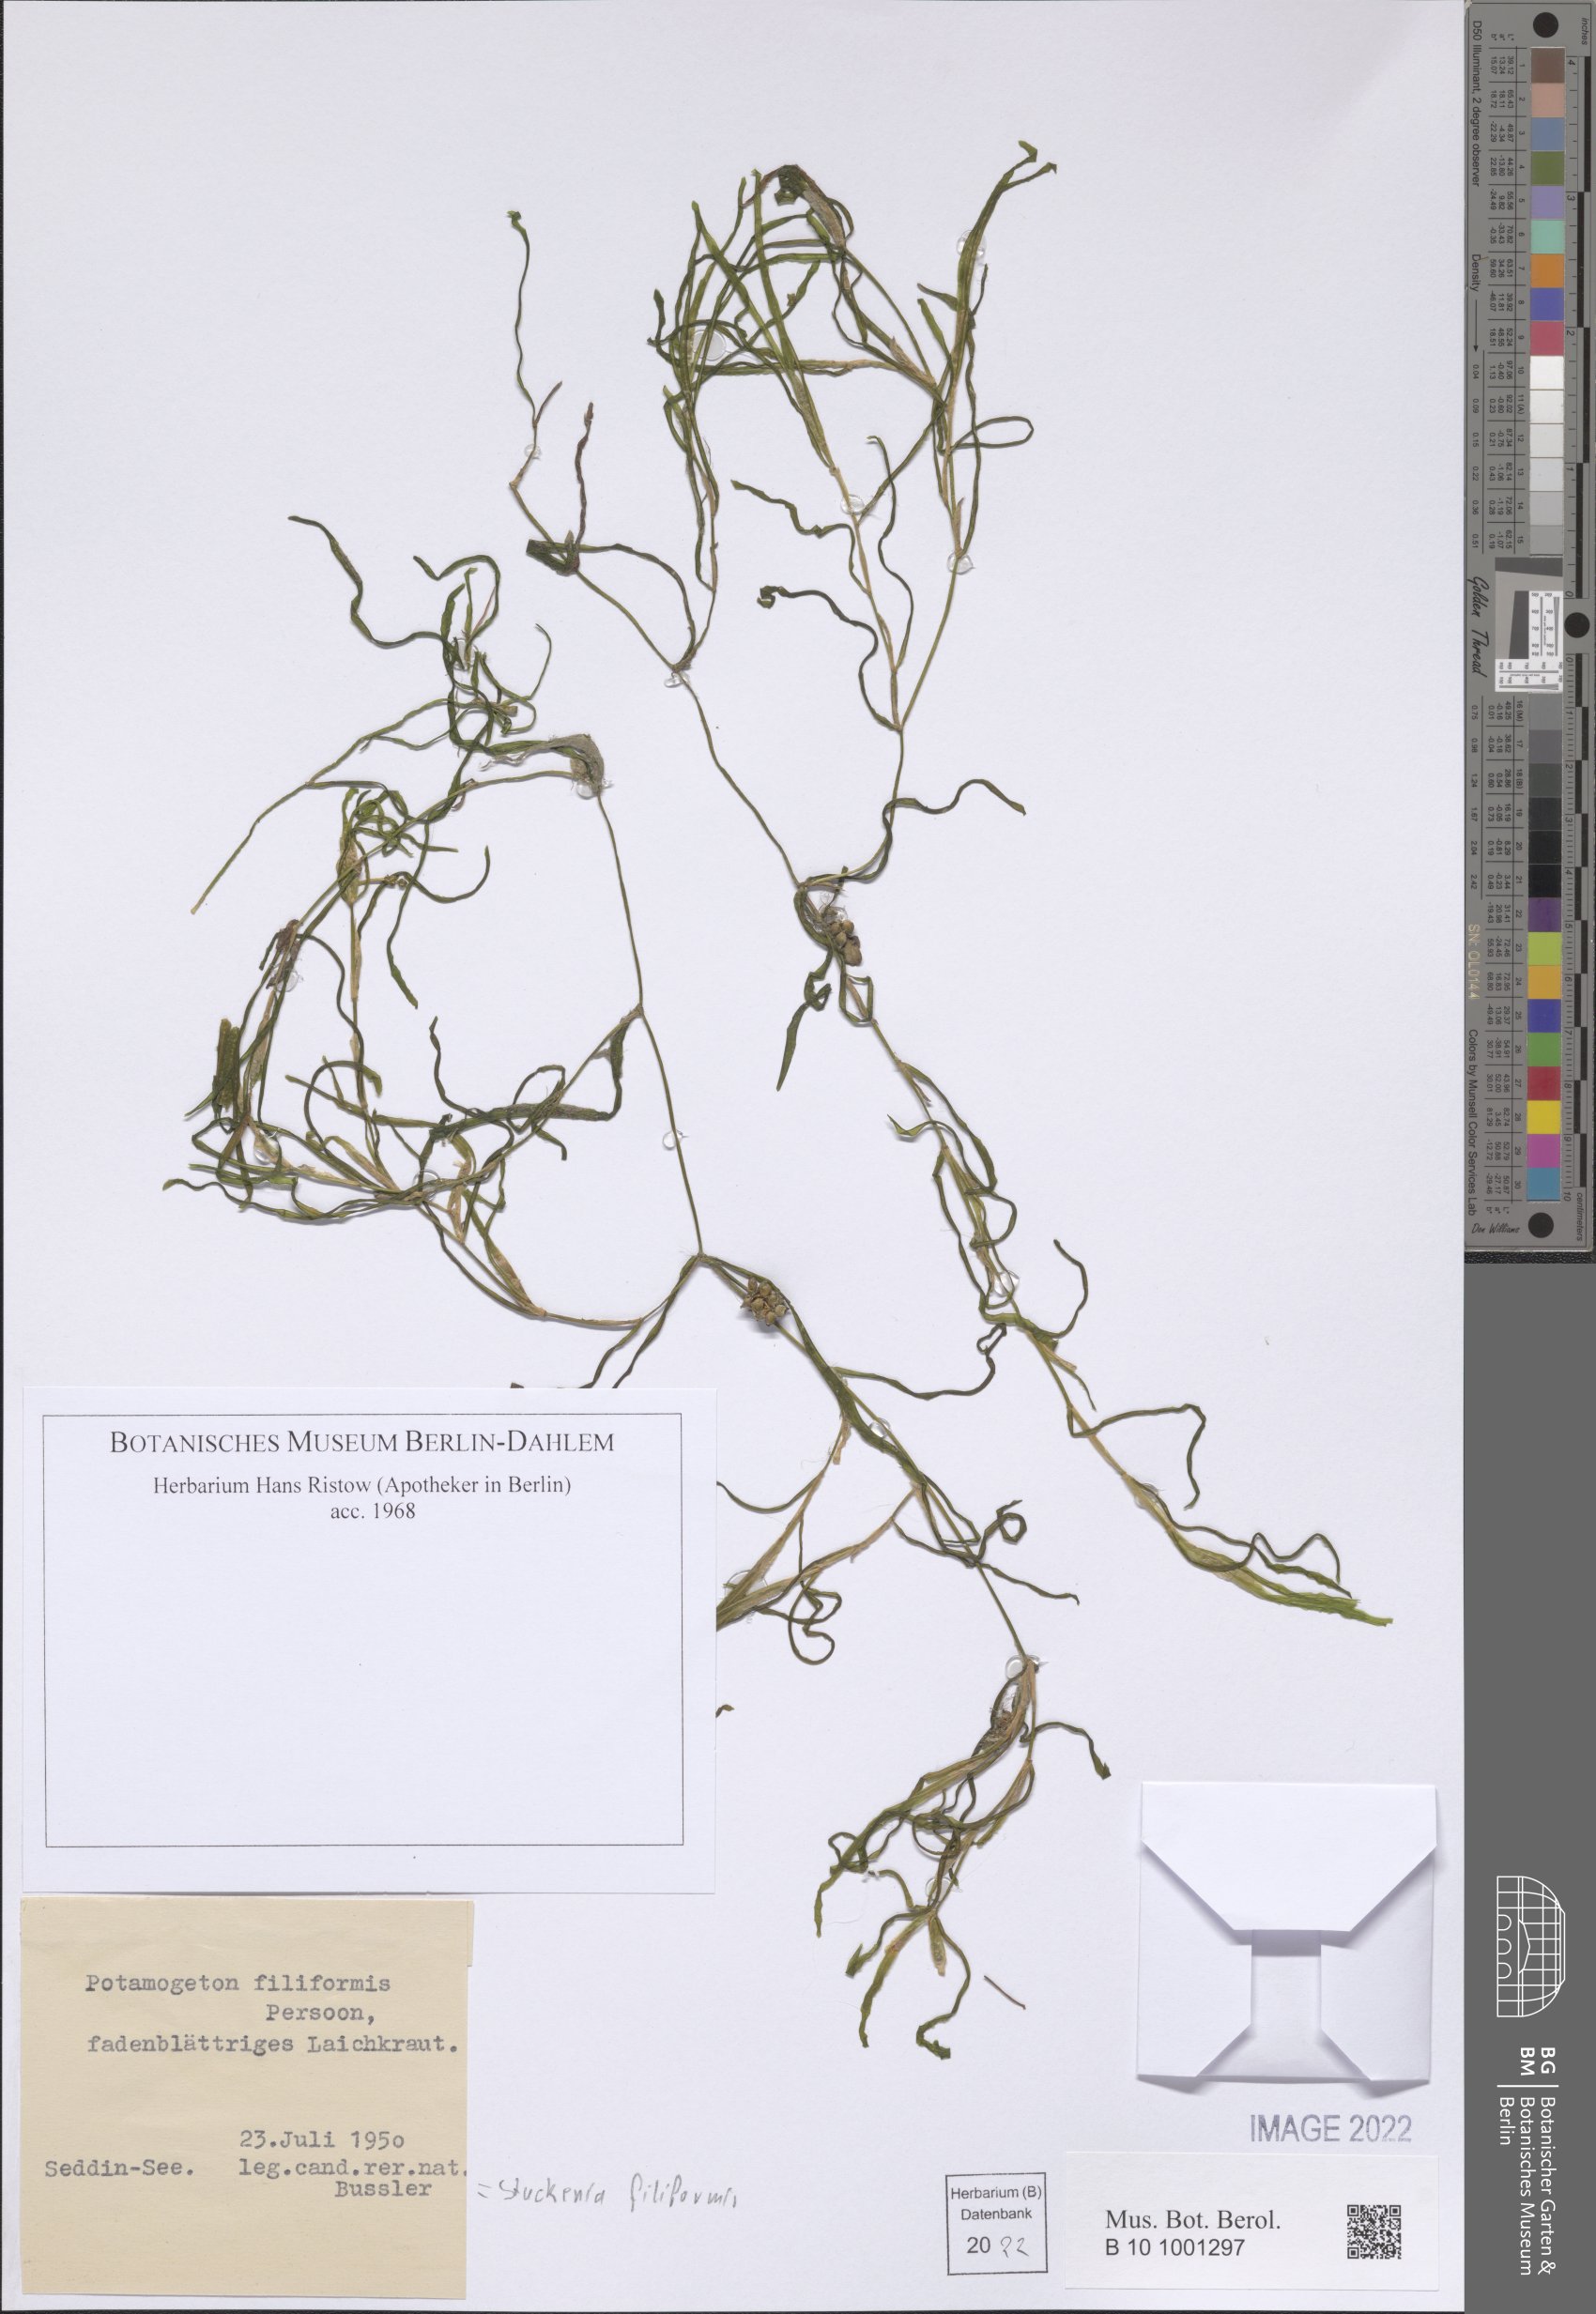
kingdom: Plantae
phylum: Tracheophyta
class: Liliopsida
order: Alismatales
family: Potamogetonaceae
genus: Stuckenia
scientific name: Stuckenia filiformis
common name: Alpine thread-leaved pondweed
